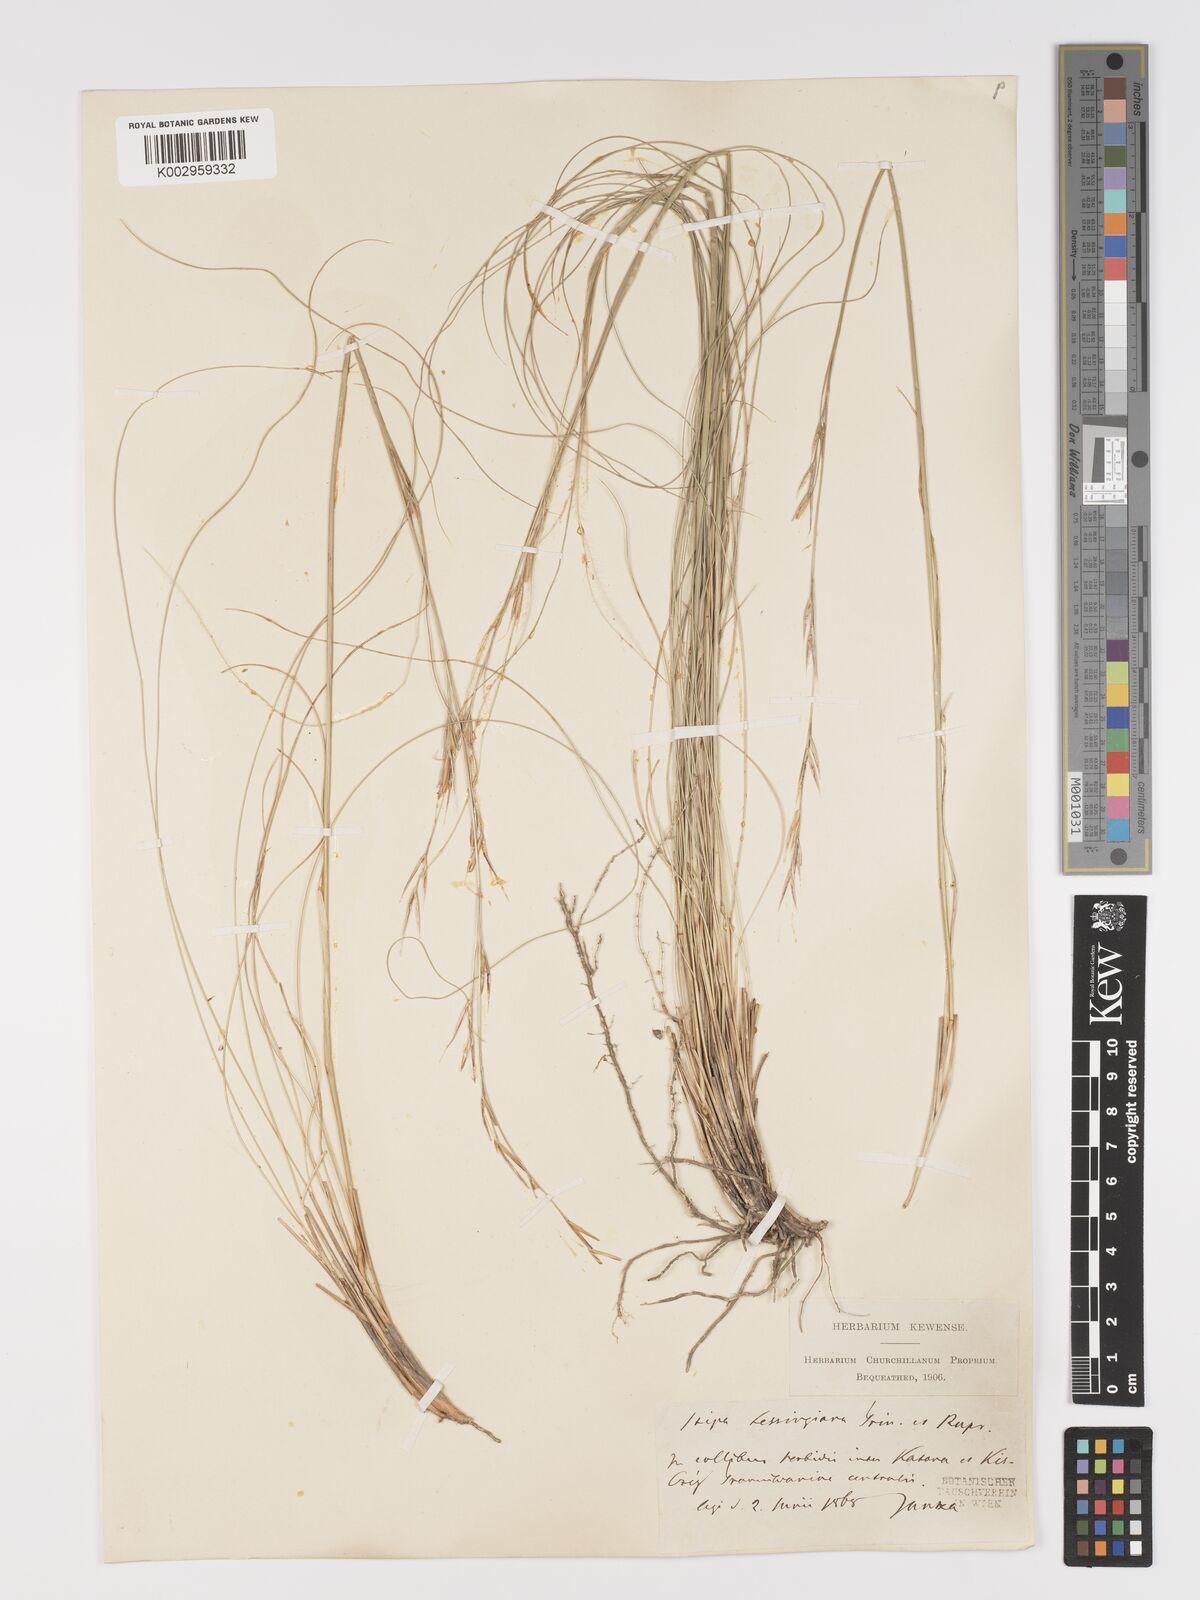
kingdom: Plantae
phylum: Tracheophyta
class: Liliopsida
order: Poales
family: Poaceae
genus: Stipa
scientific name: Stipa lessingiana
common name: Needle grass
